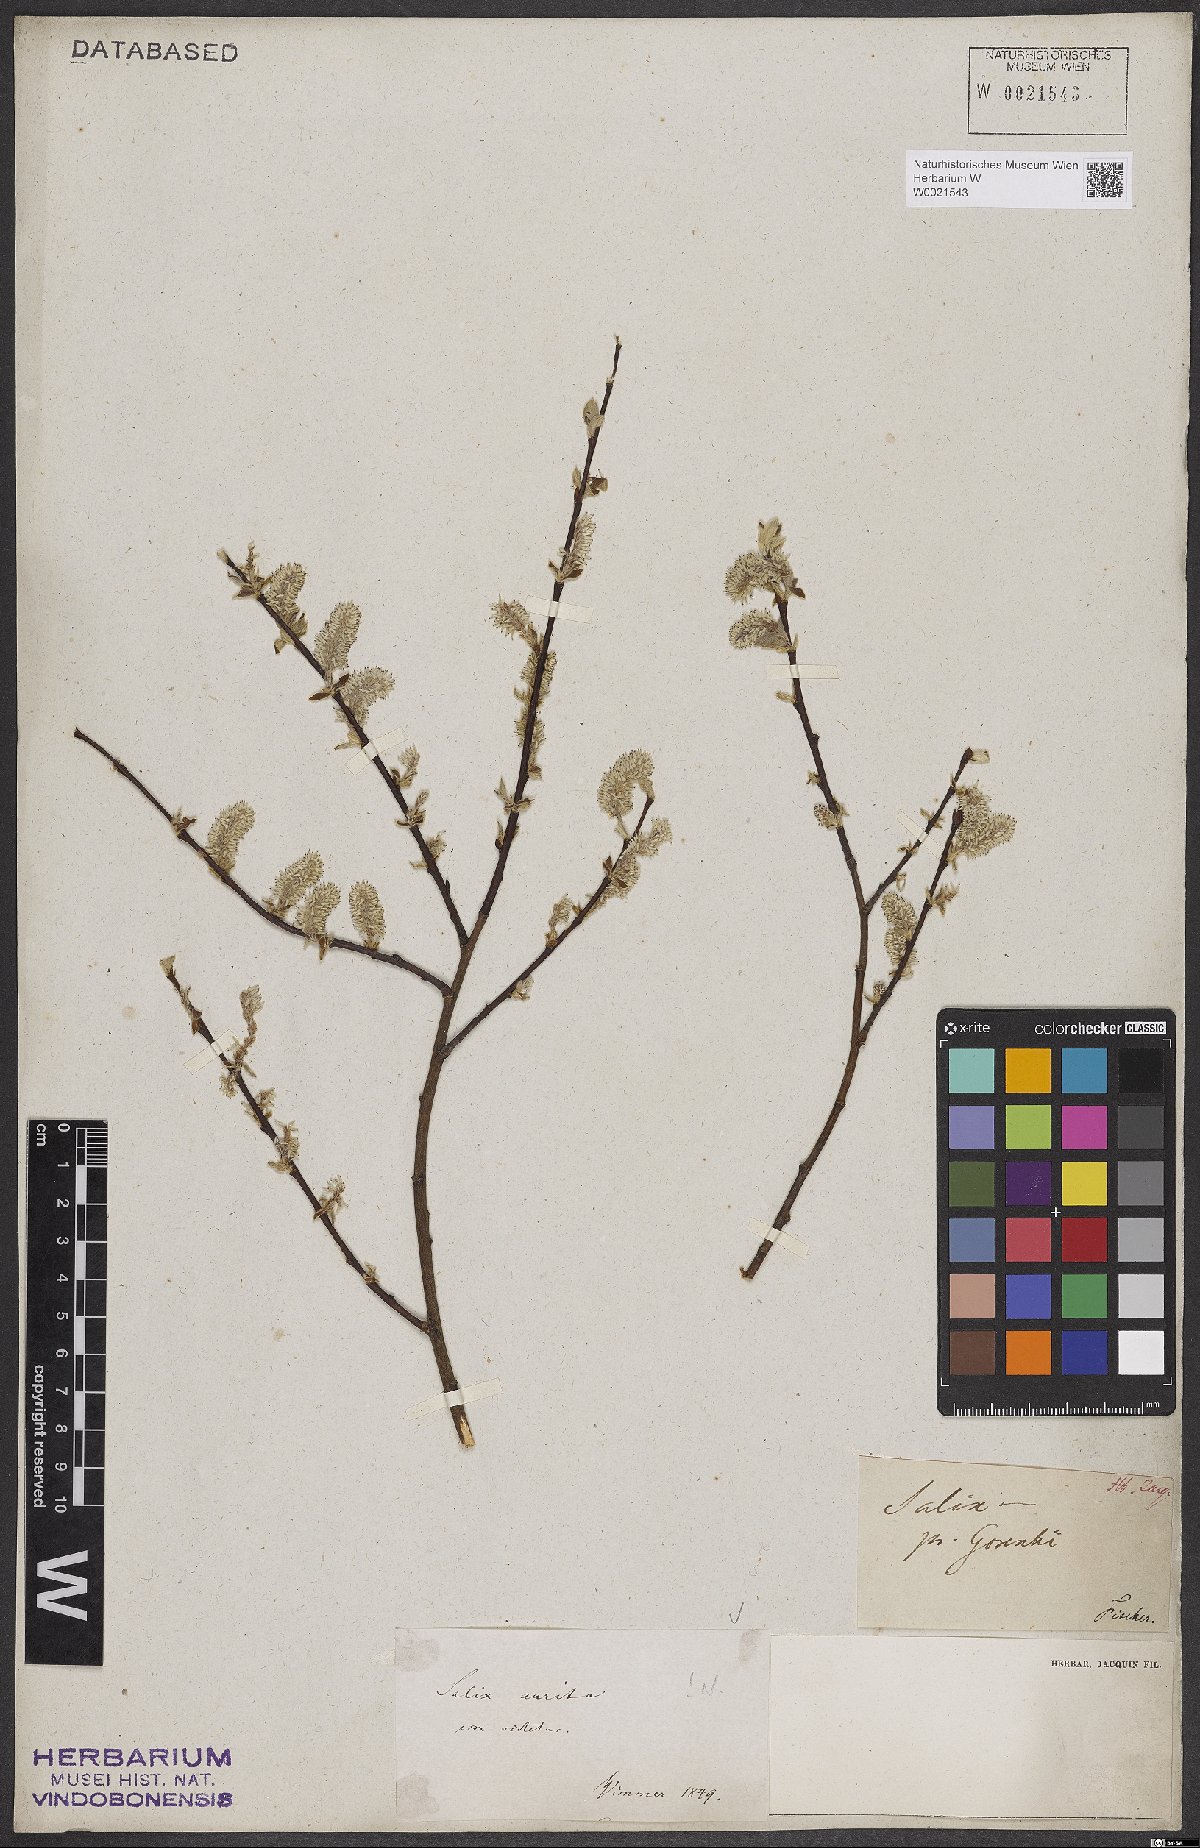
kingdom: Plantae
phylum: Tracheophyta
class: Magnoliopsida
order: Malpighiales
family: Salicaceae
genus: Salix
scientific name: Salix aurita
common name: Eared willow
